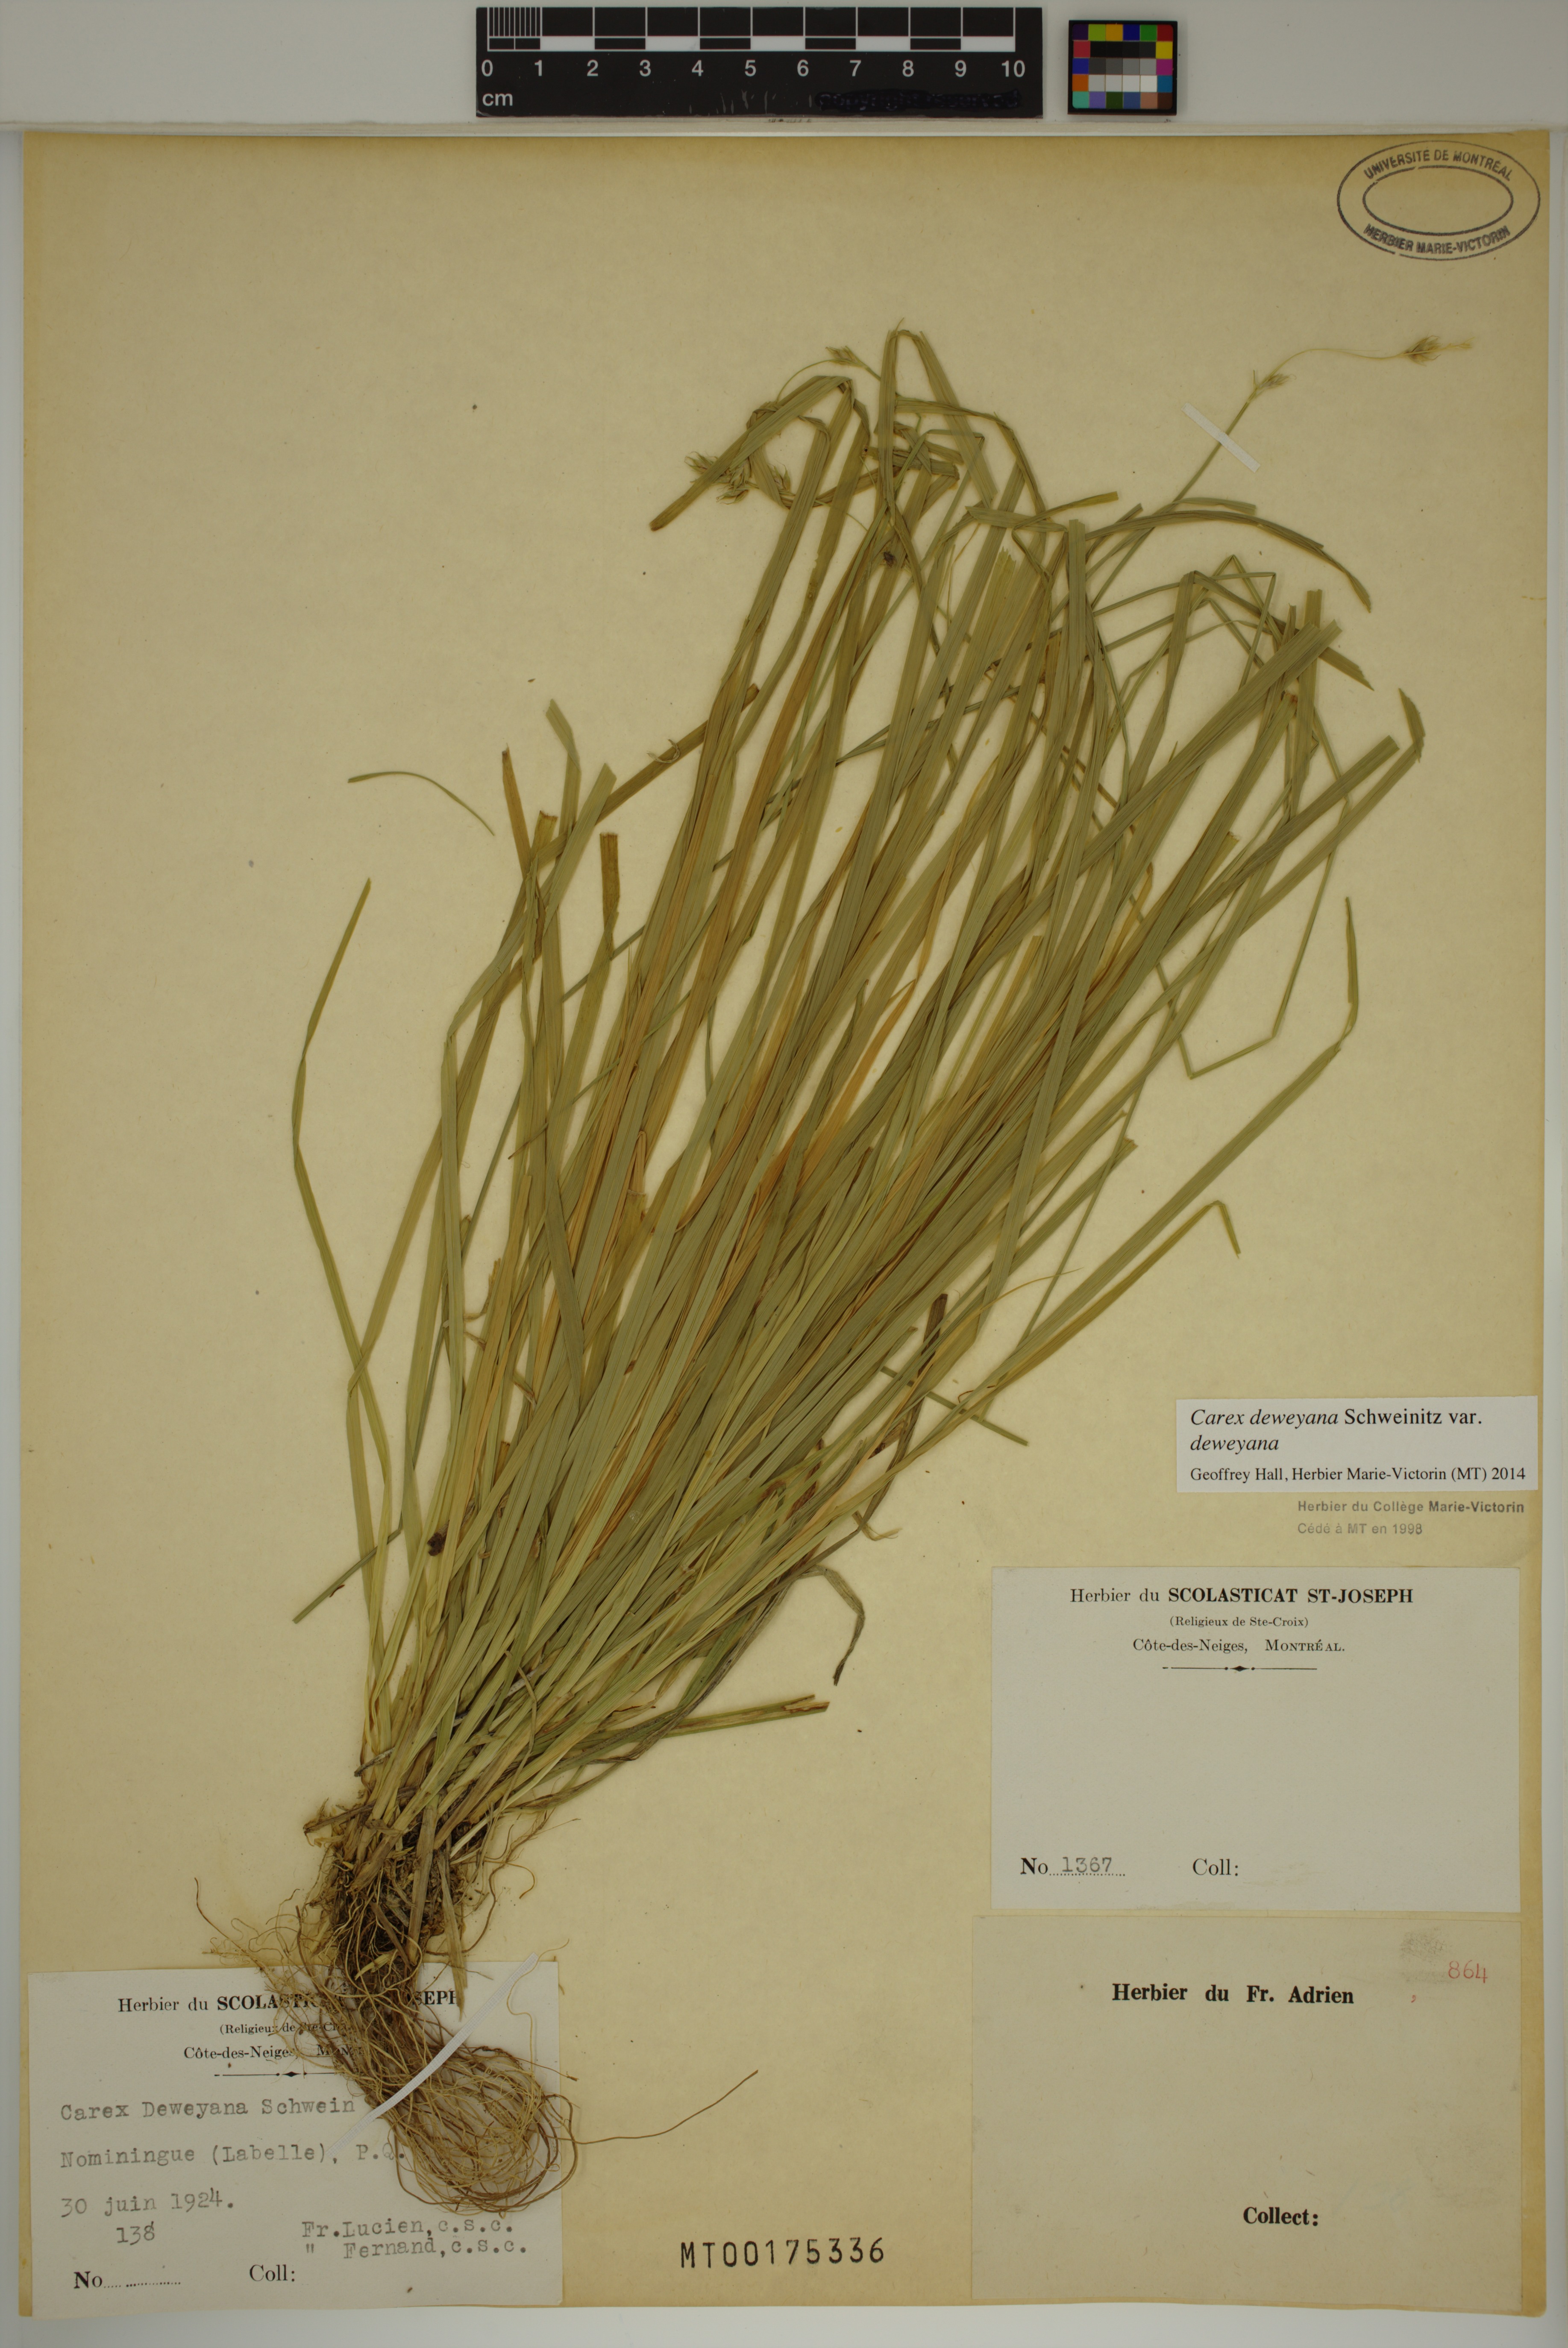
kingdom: Plantae
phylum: Tracheophyta
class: Liliopsida
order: Poales
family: Cyperaceae
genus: Carex
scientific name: Carex deweyana
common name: Dewey's sedge
